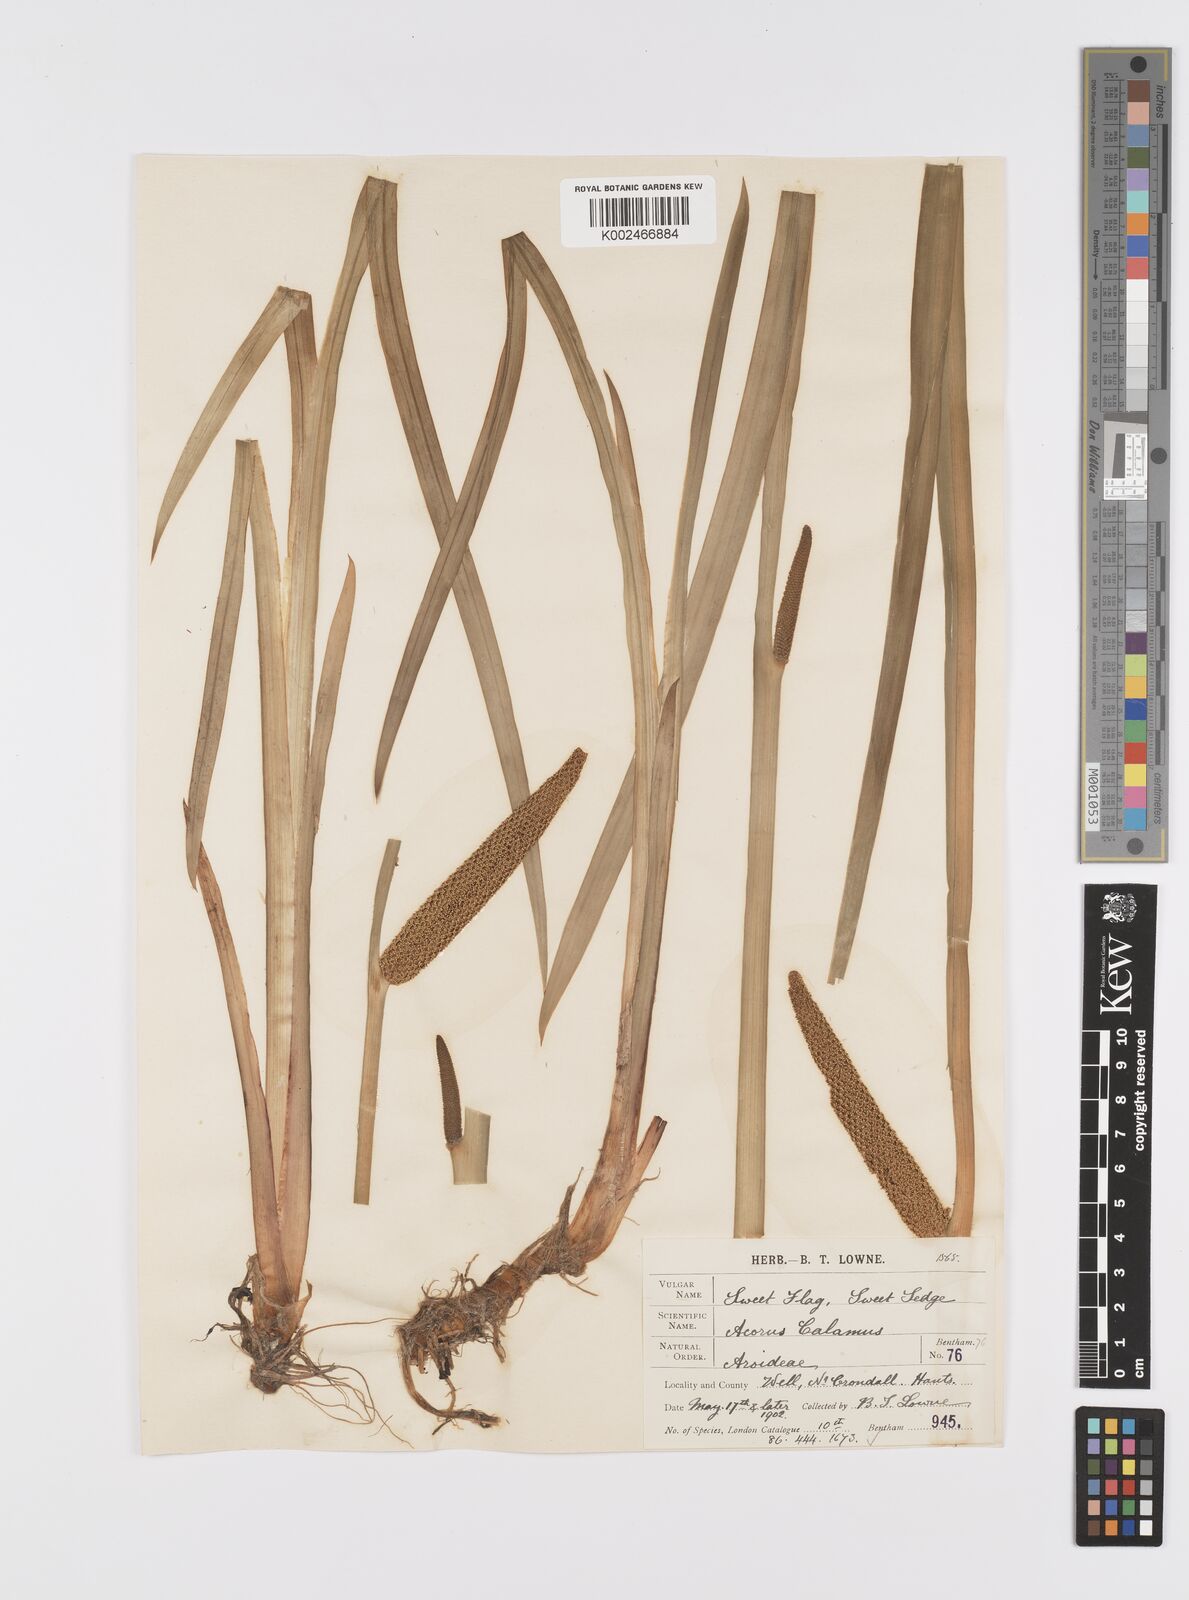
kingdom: Plantae
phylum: Tracheophyta
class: Liliopsida
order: Acorales
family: Acoraceae
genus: Acorus
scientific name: Acorus calamus
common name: Sweet-flag
